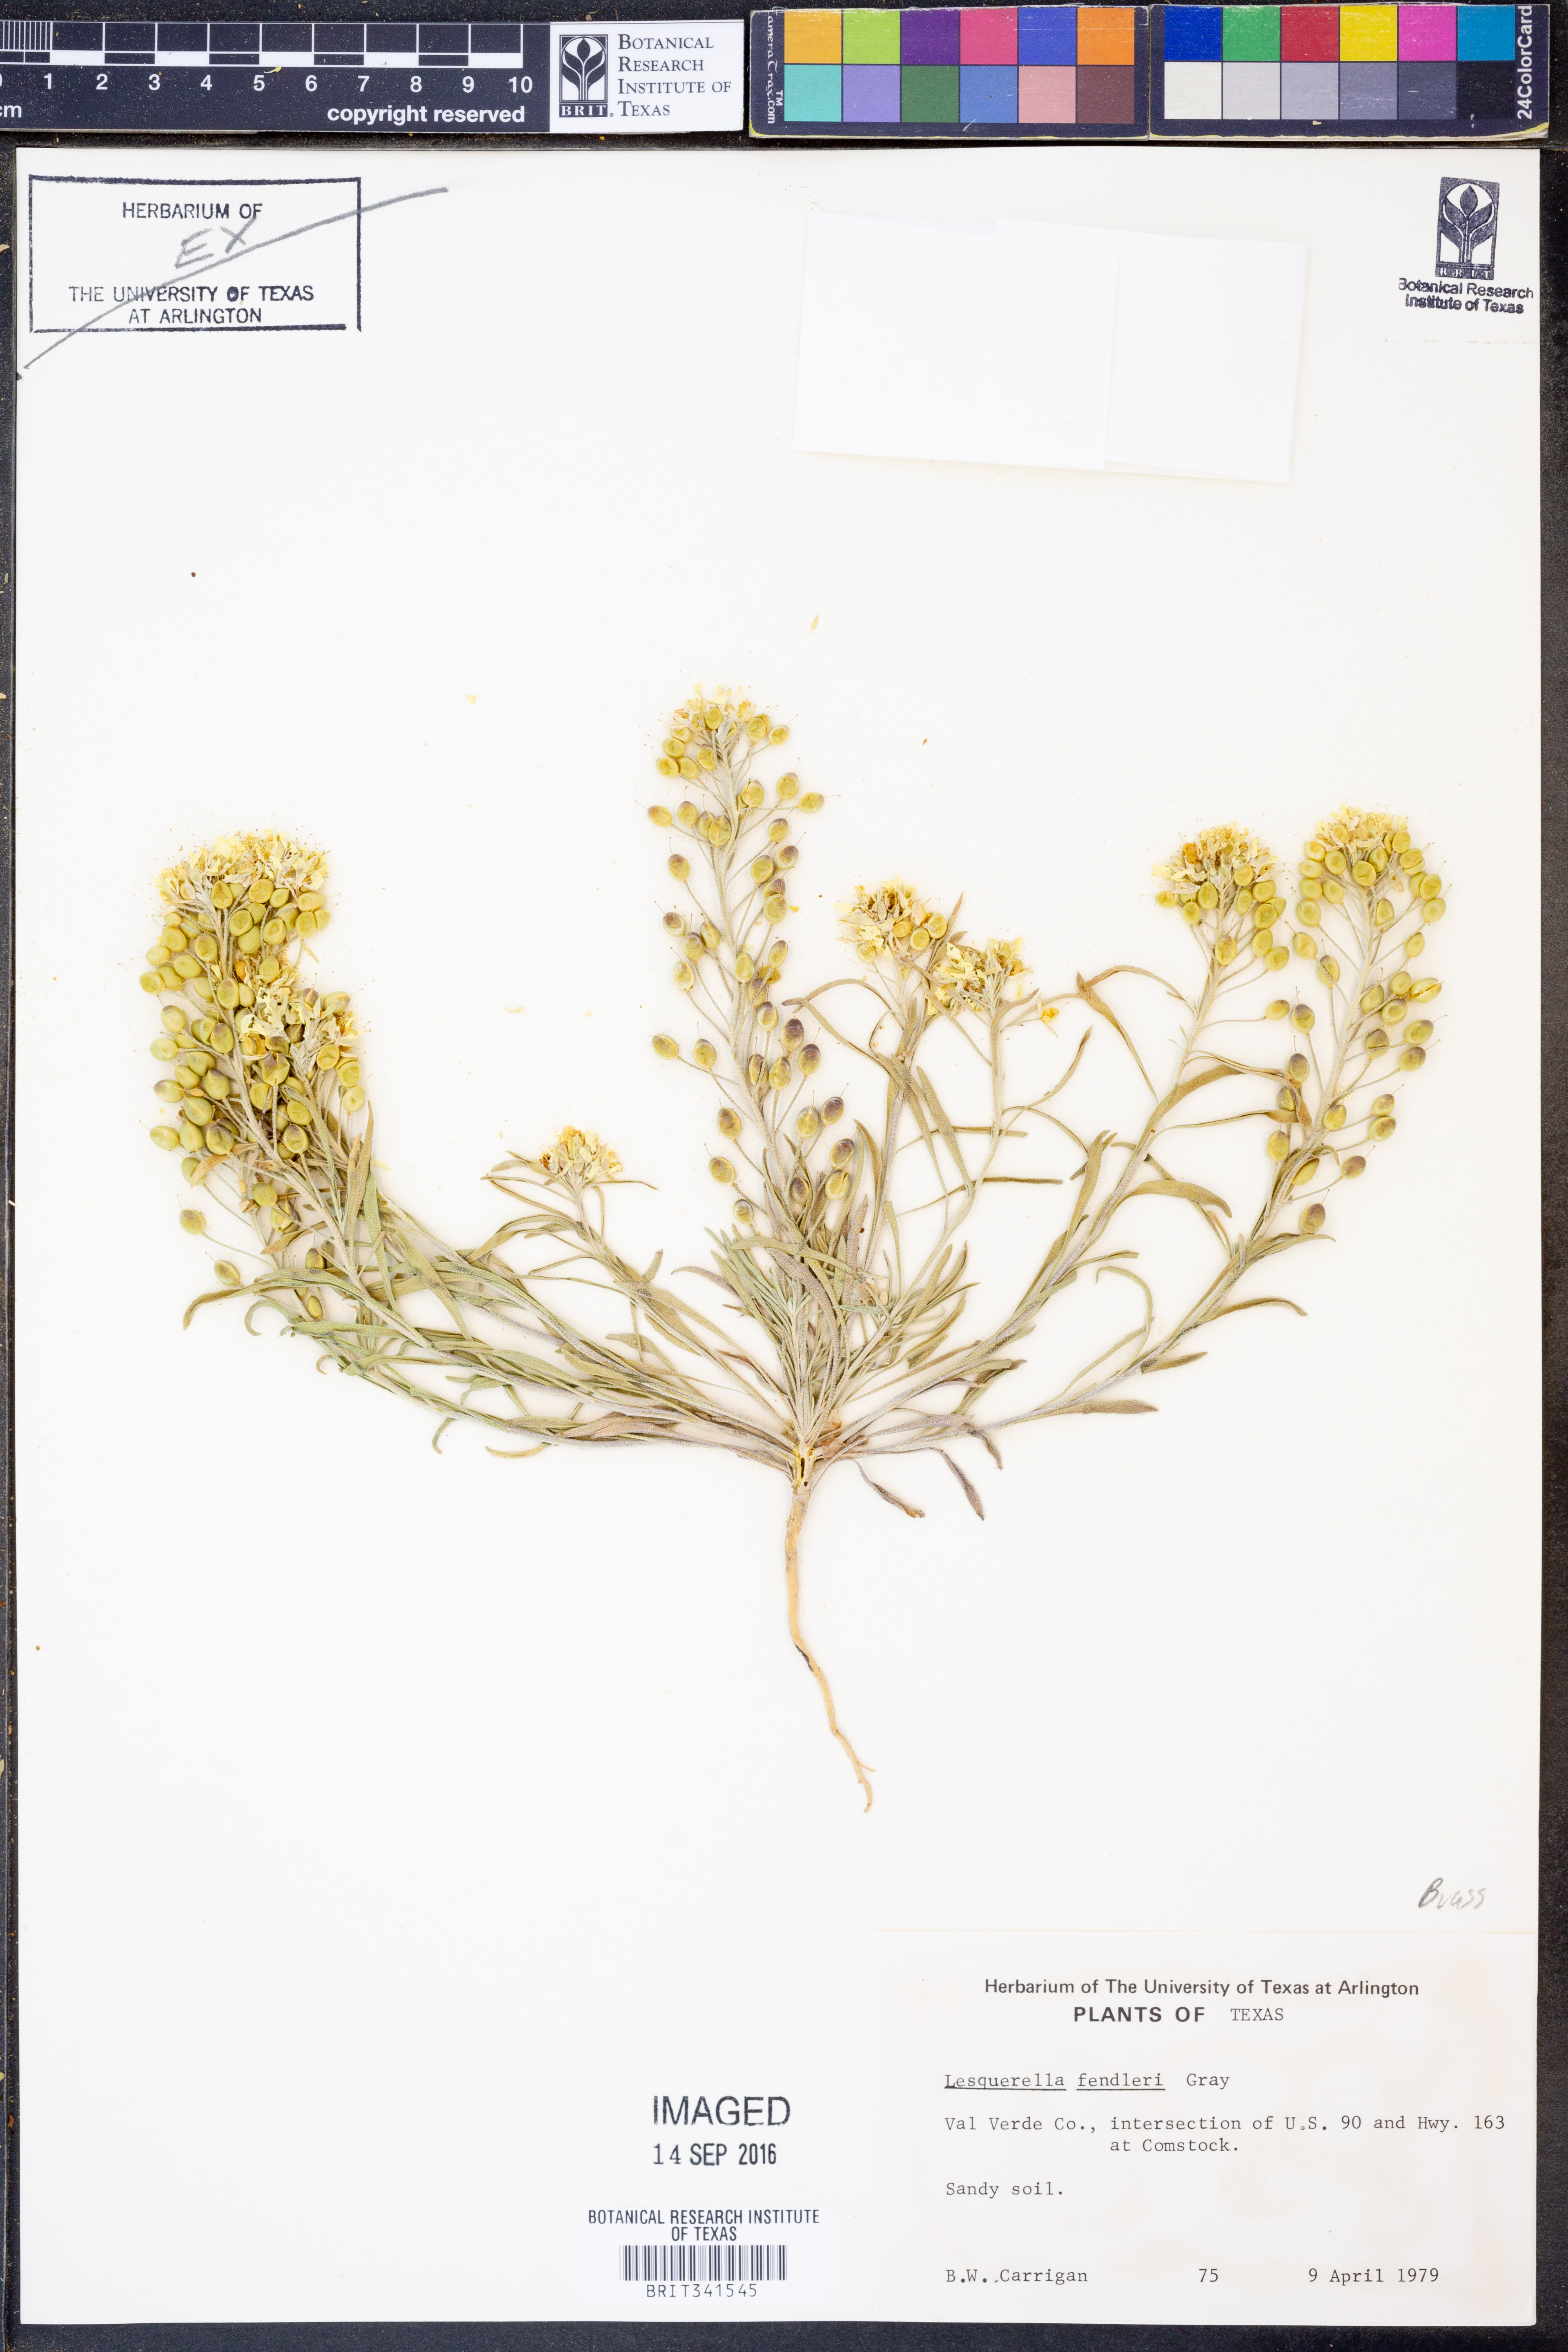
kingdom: Plantae
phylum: Tracheophyta
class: Magnoliopsida
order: Brassicales
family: Brassicaceae
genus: Physaria
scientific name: Physaria fendleri
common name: Fendler's bladderpod
